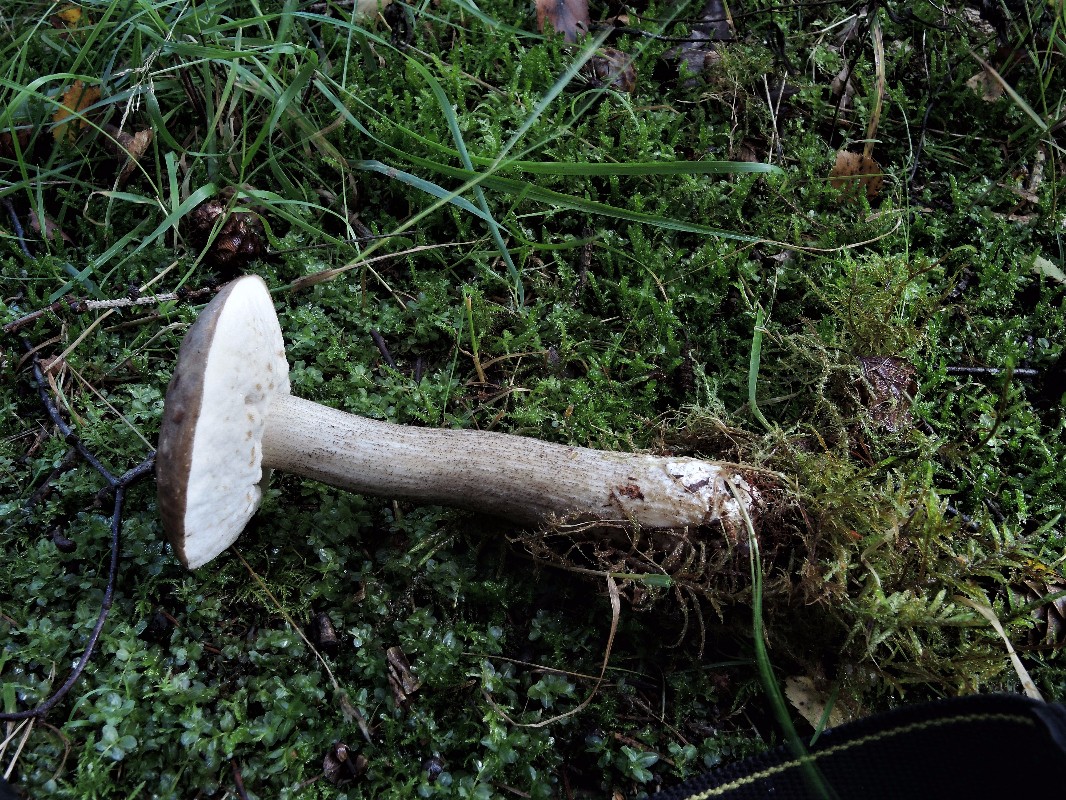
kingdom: Fungi
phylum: Basidiomycota
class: Agaricomycetes
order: Boletales
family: Boletaceae
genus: Leccinum
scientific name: Leccinum cyaneobasileucum
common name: almindelig skælrørhat
